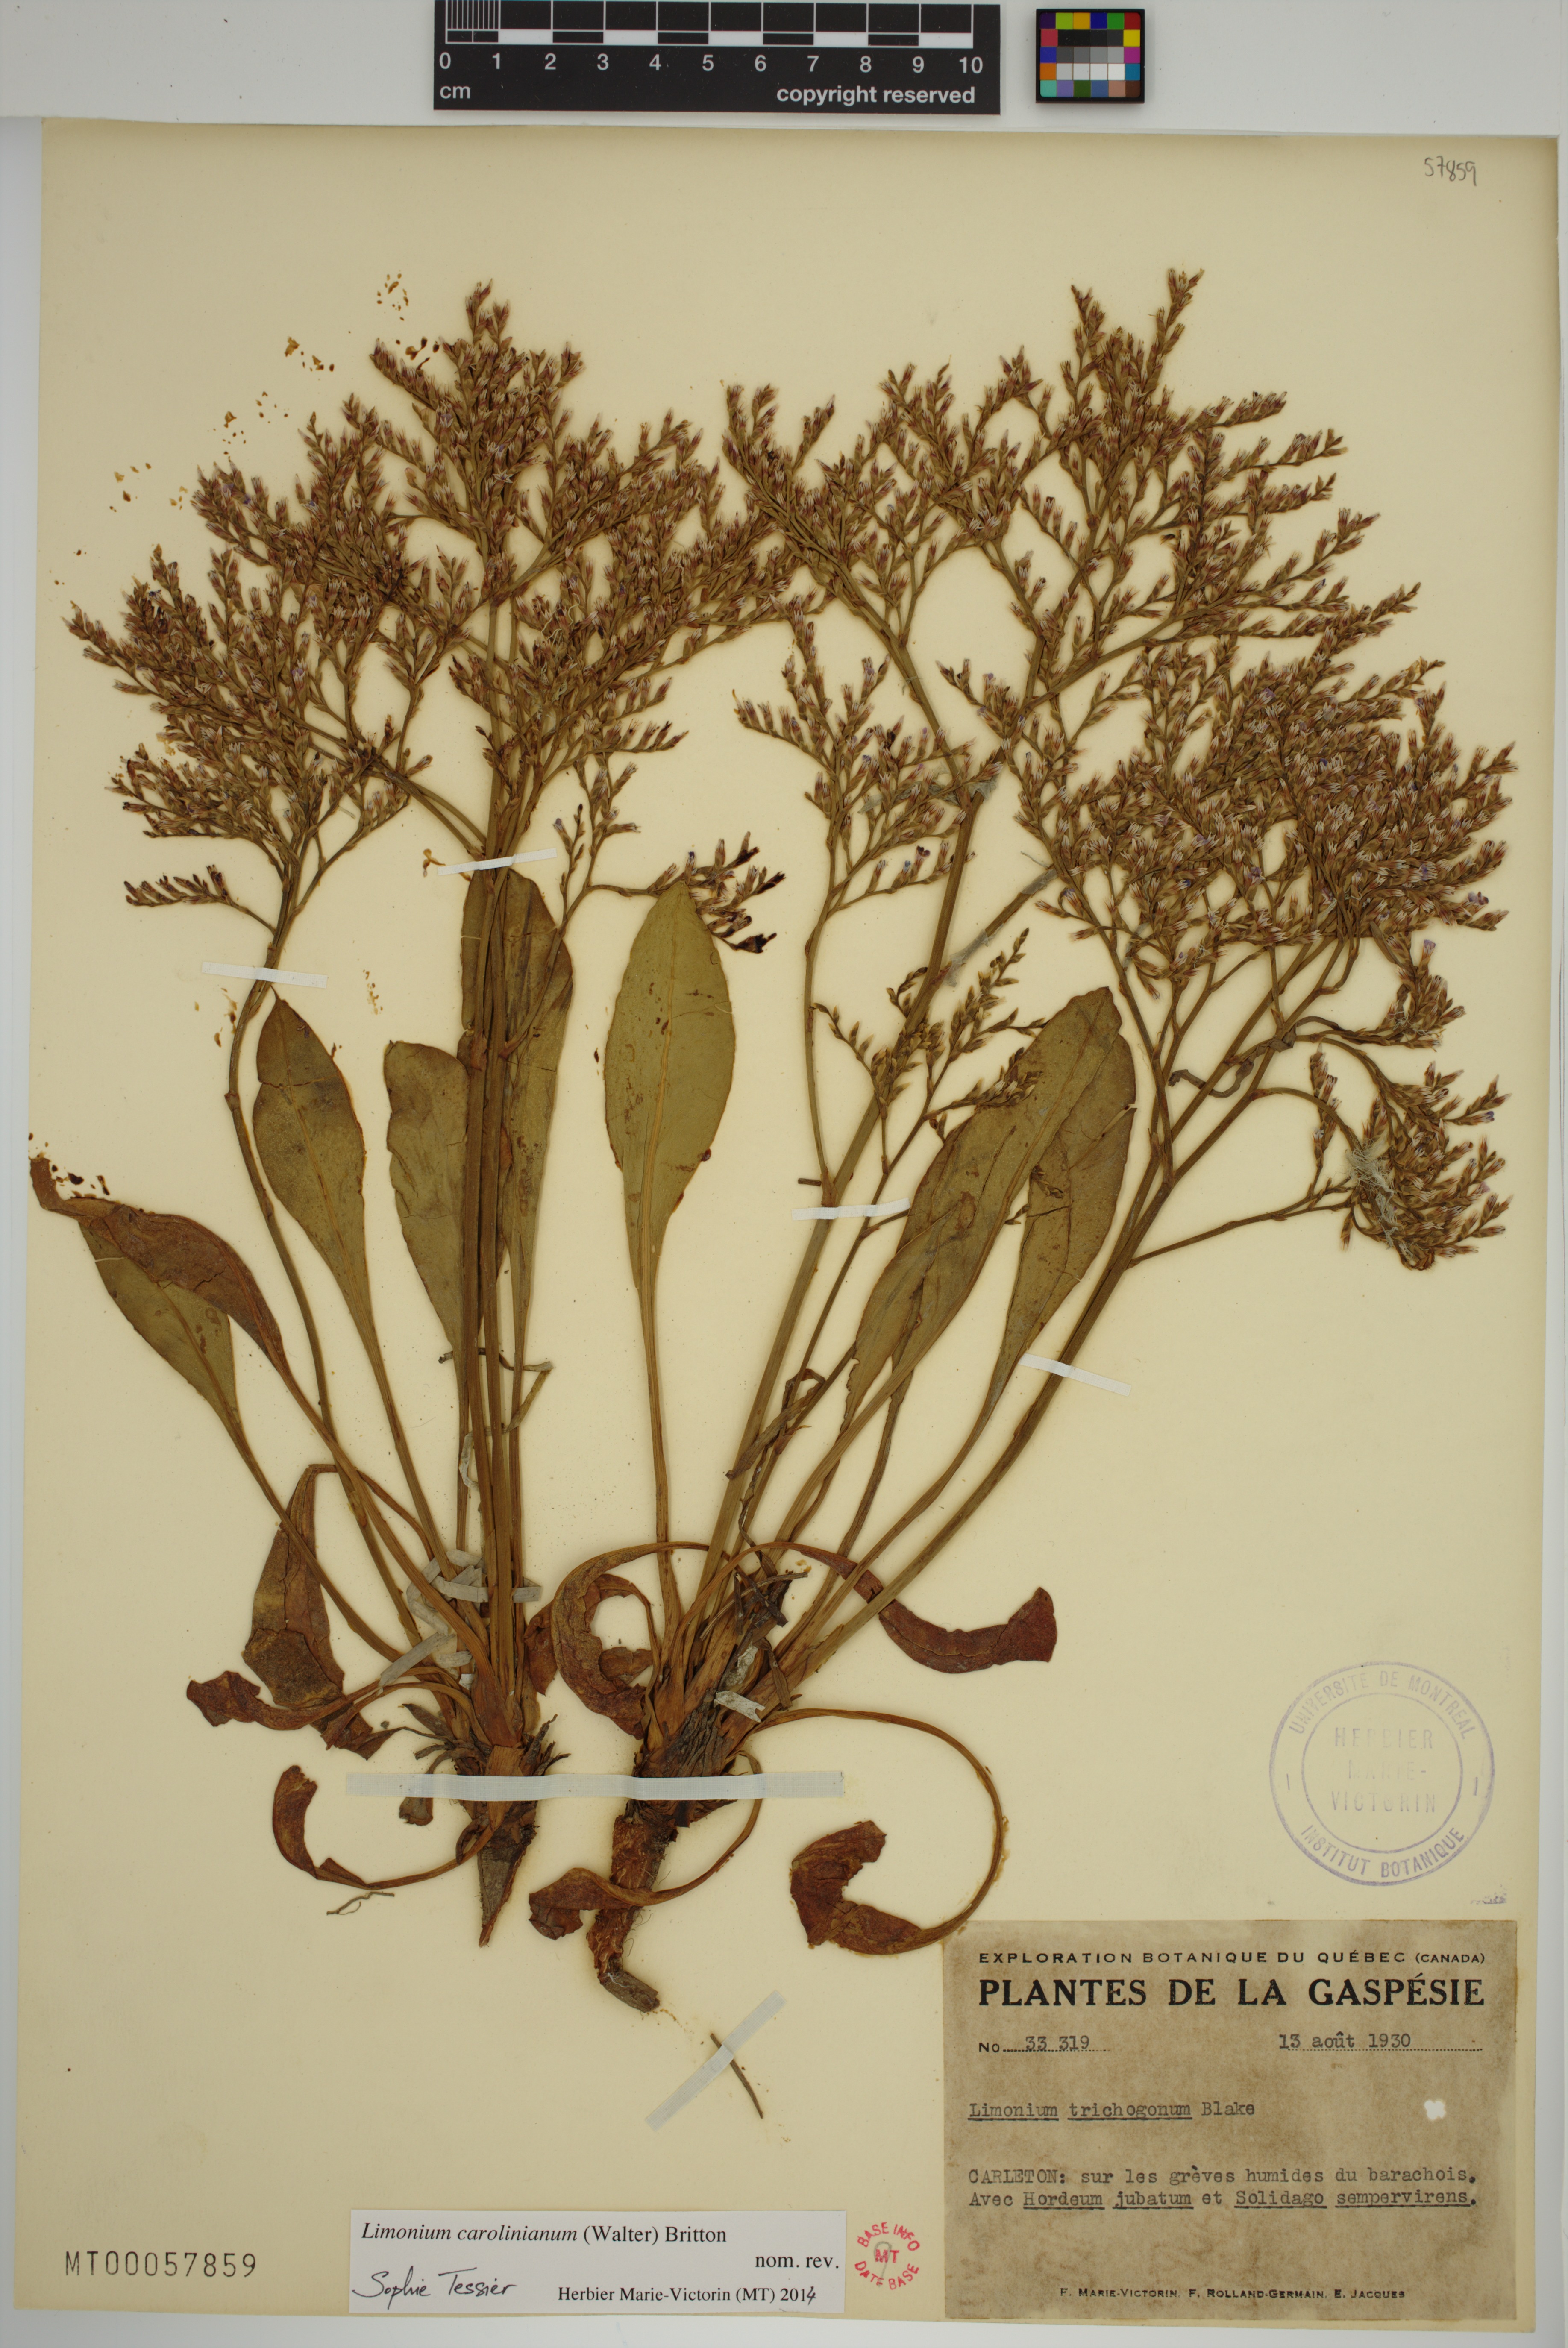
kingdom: Plantae
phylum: Tracheophyta
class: Magnoliopsida
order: Caryophyllales
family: Plumbaginaceae
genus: Limonium
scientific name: Limonium carolinianum
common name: Carolina sea lavender
